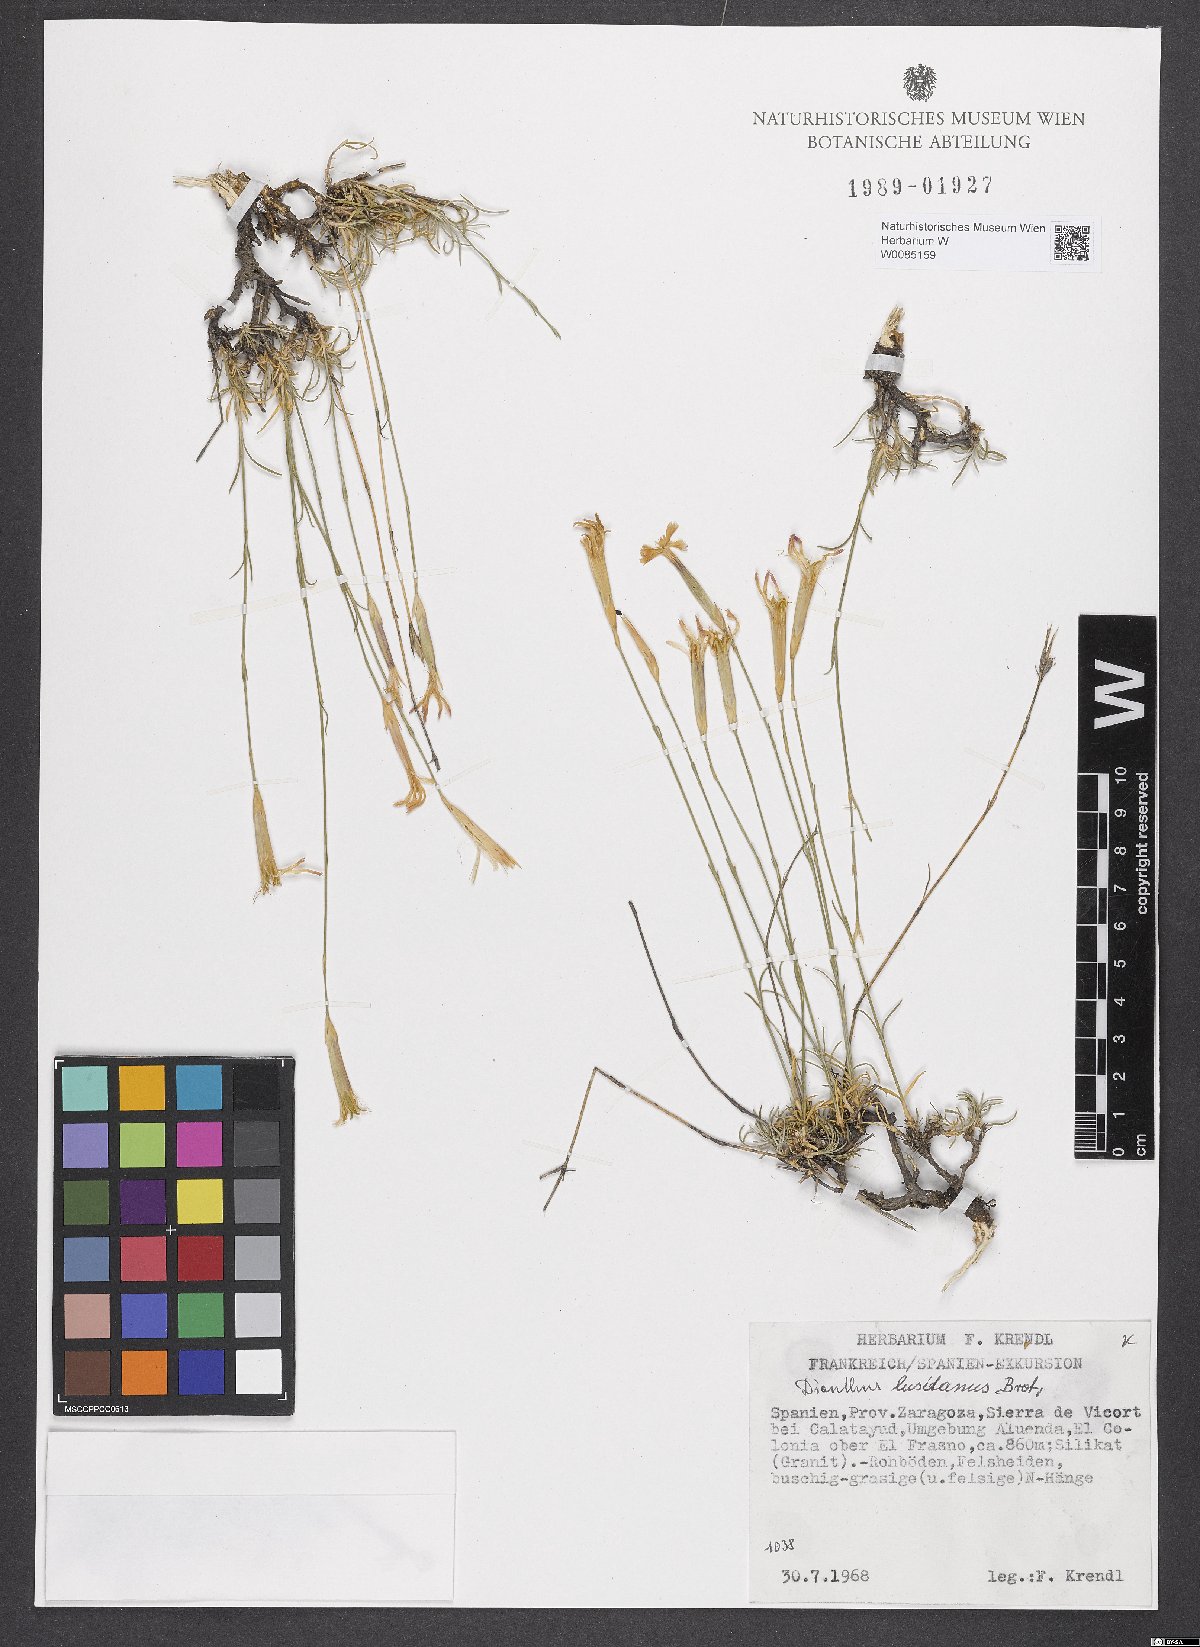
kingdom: Plantae
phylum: Tracheophyta
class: Magnoliopsida
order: Caryophyllales
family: Caryophyllaceae
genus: Dianthus
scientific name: Dianthus lusitanus
